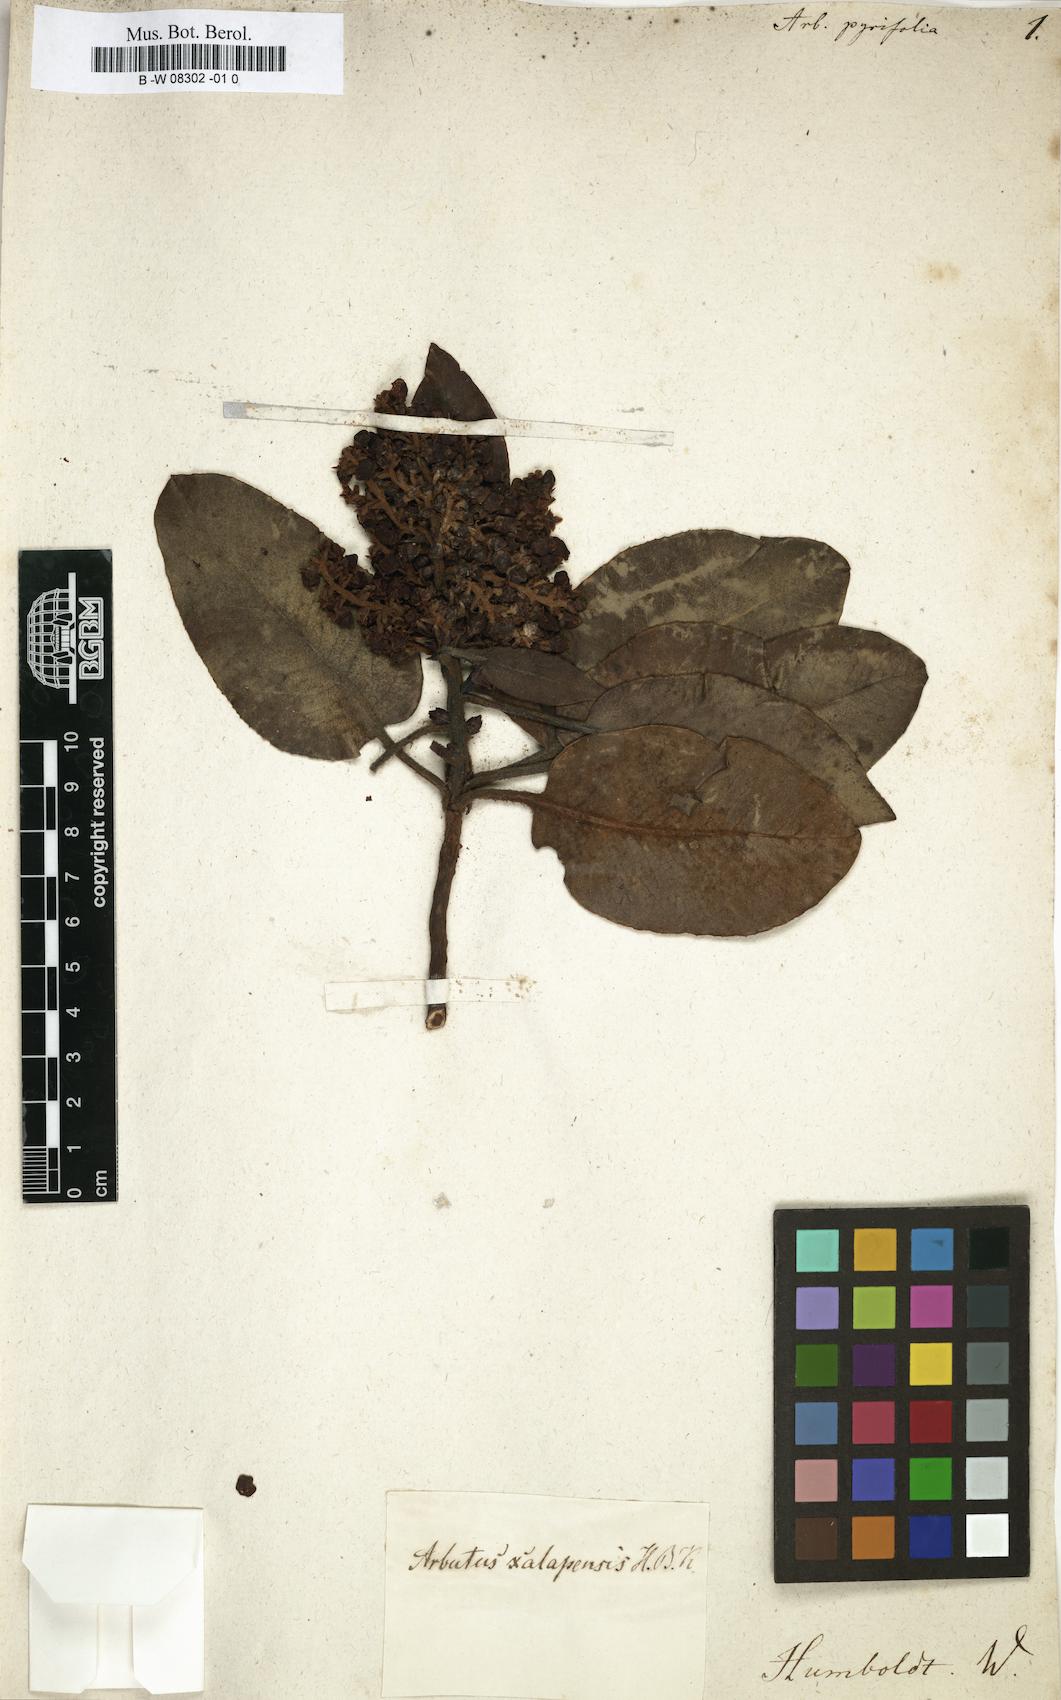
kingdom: Plantae
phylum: Tracheophyta
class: Magnoliopsida
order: Ericales
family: Ericaceae
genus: Arbutus
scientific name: Arbutus
